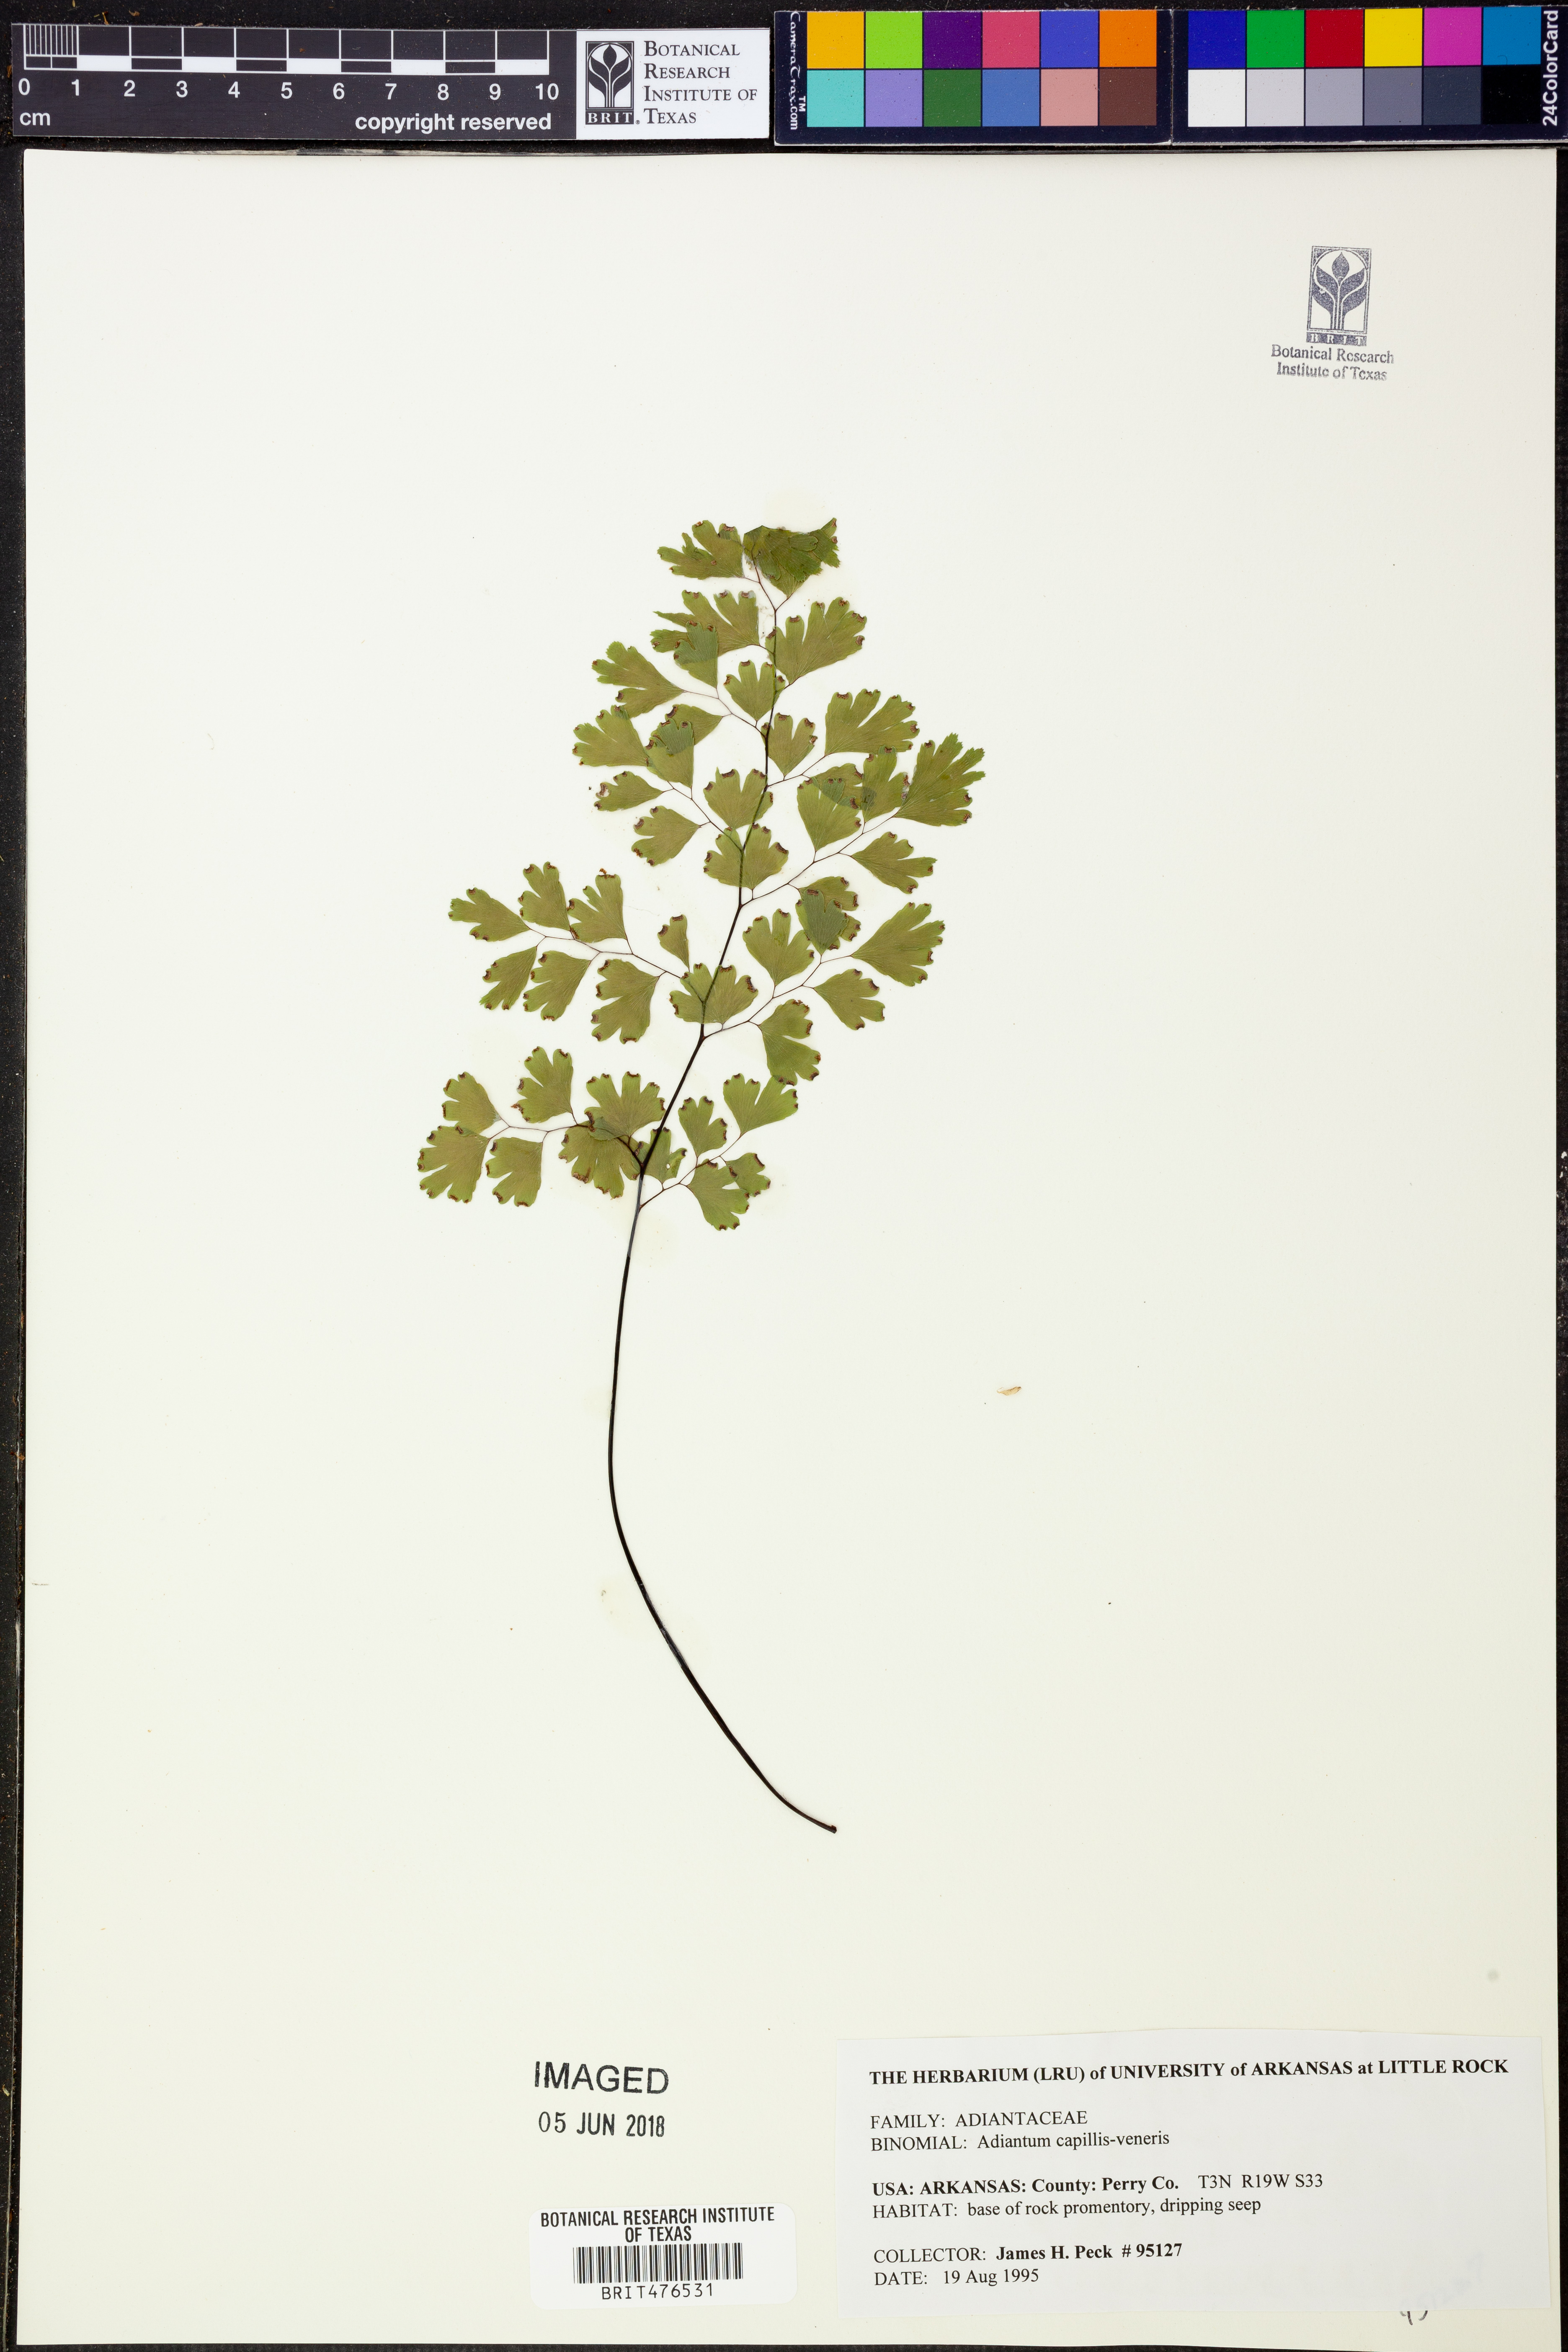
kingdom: Plantae
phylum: Tracheophyta
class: Polypodiopsida
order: Polypodiales
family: Pteridaceae
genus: Adiantum
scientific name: Adiantum capillus-veneris
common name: Maidenhair fern
